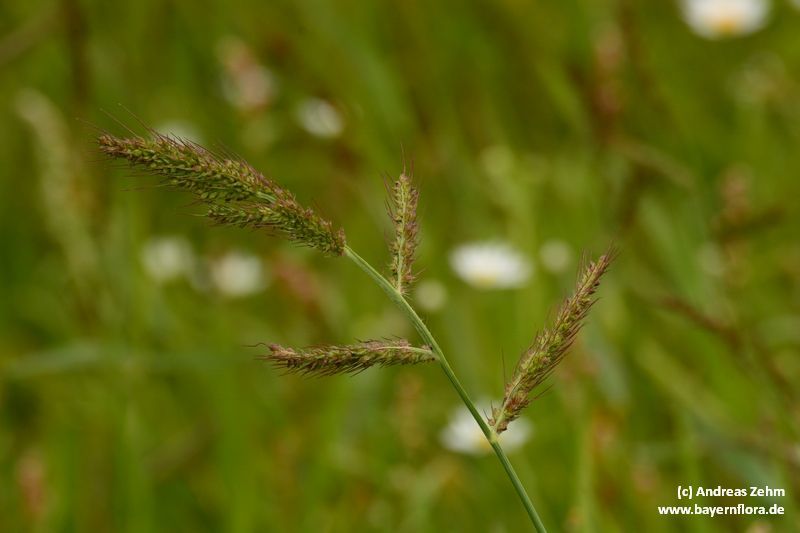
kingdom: Plantae
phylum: Tracheophyta
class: Liliopsida
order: Poales
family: Poaceae
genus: Echinochloa
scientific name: Echinochloa crus-galli
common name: Cockspur
